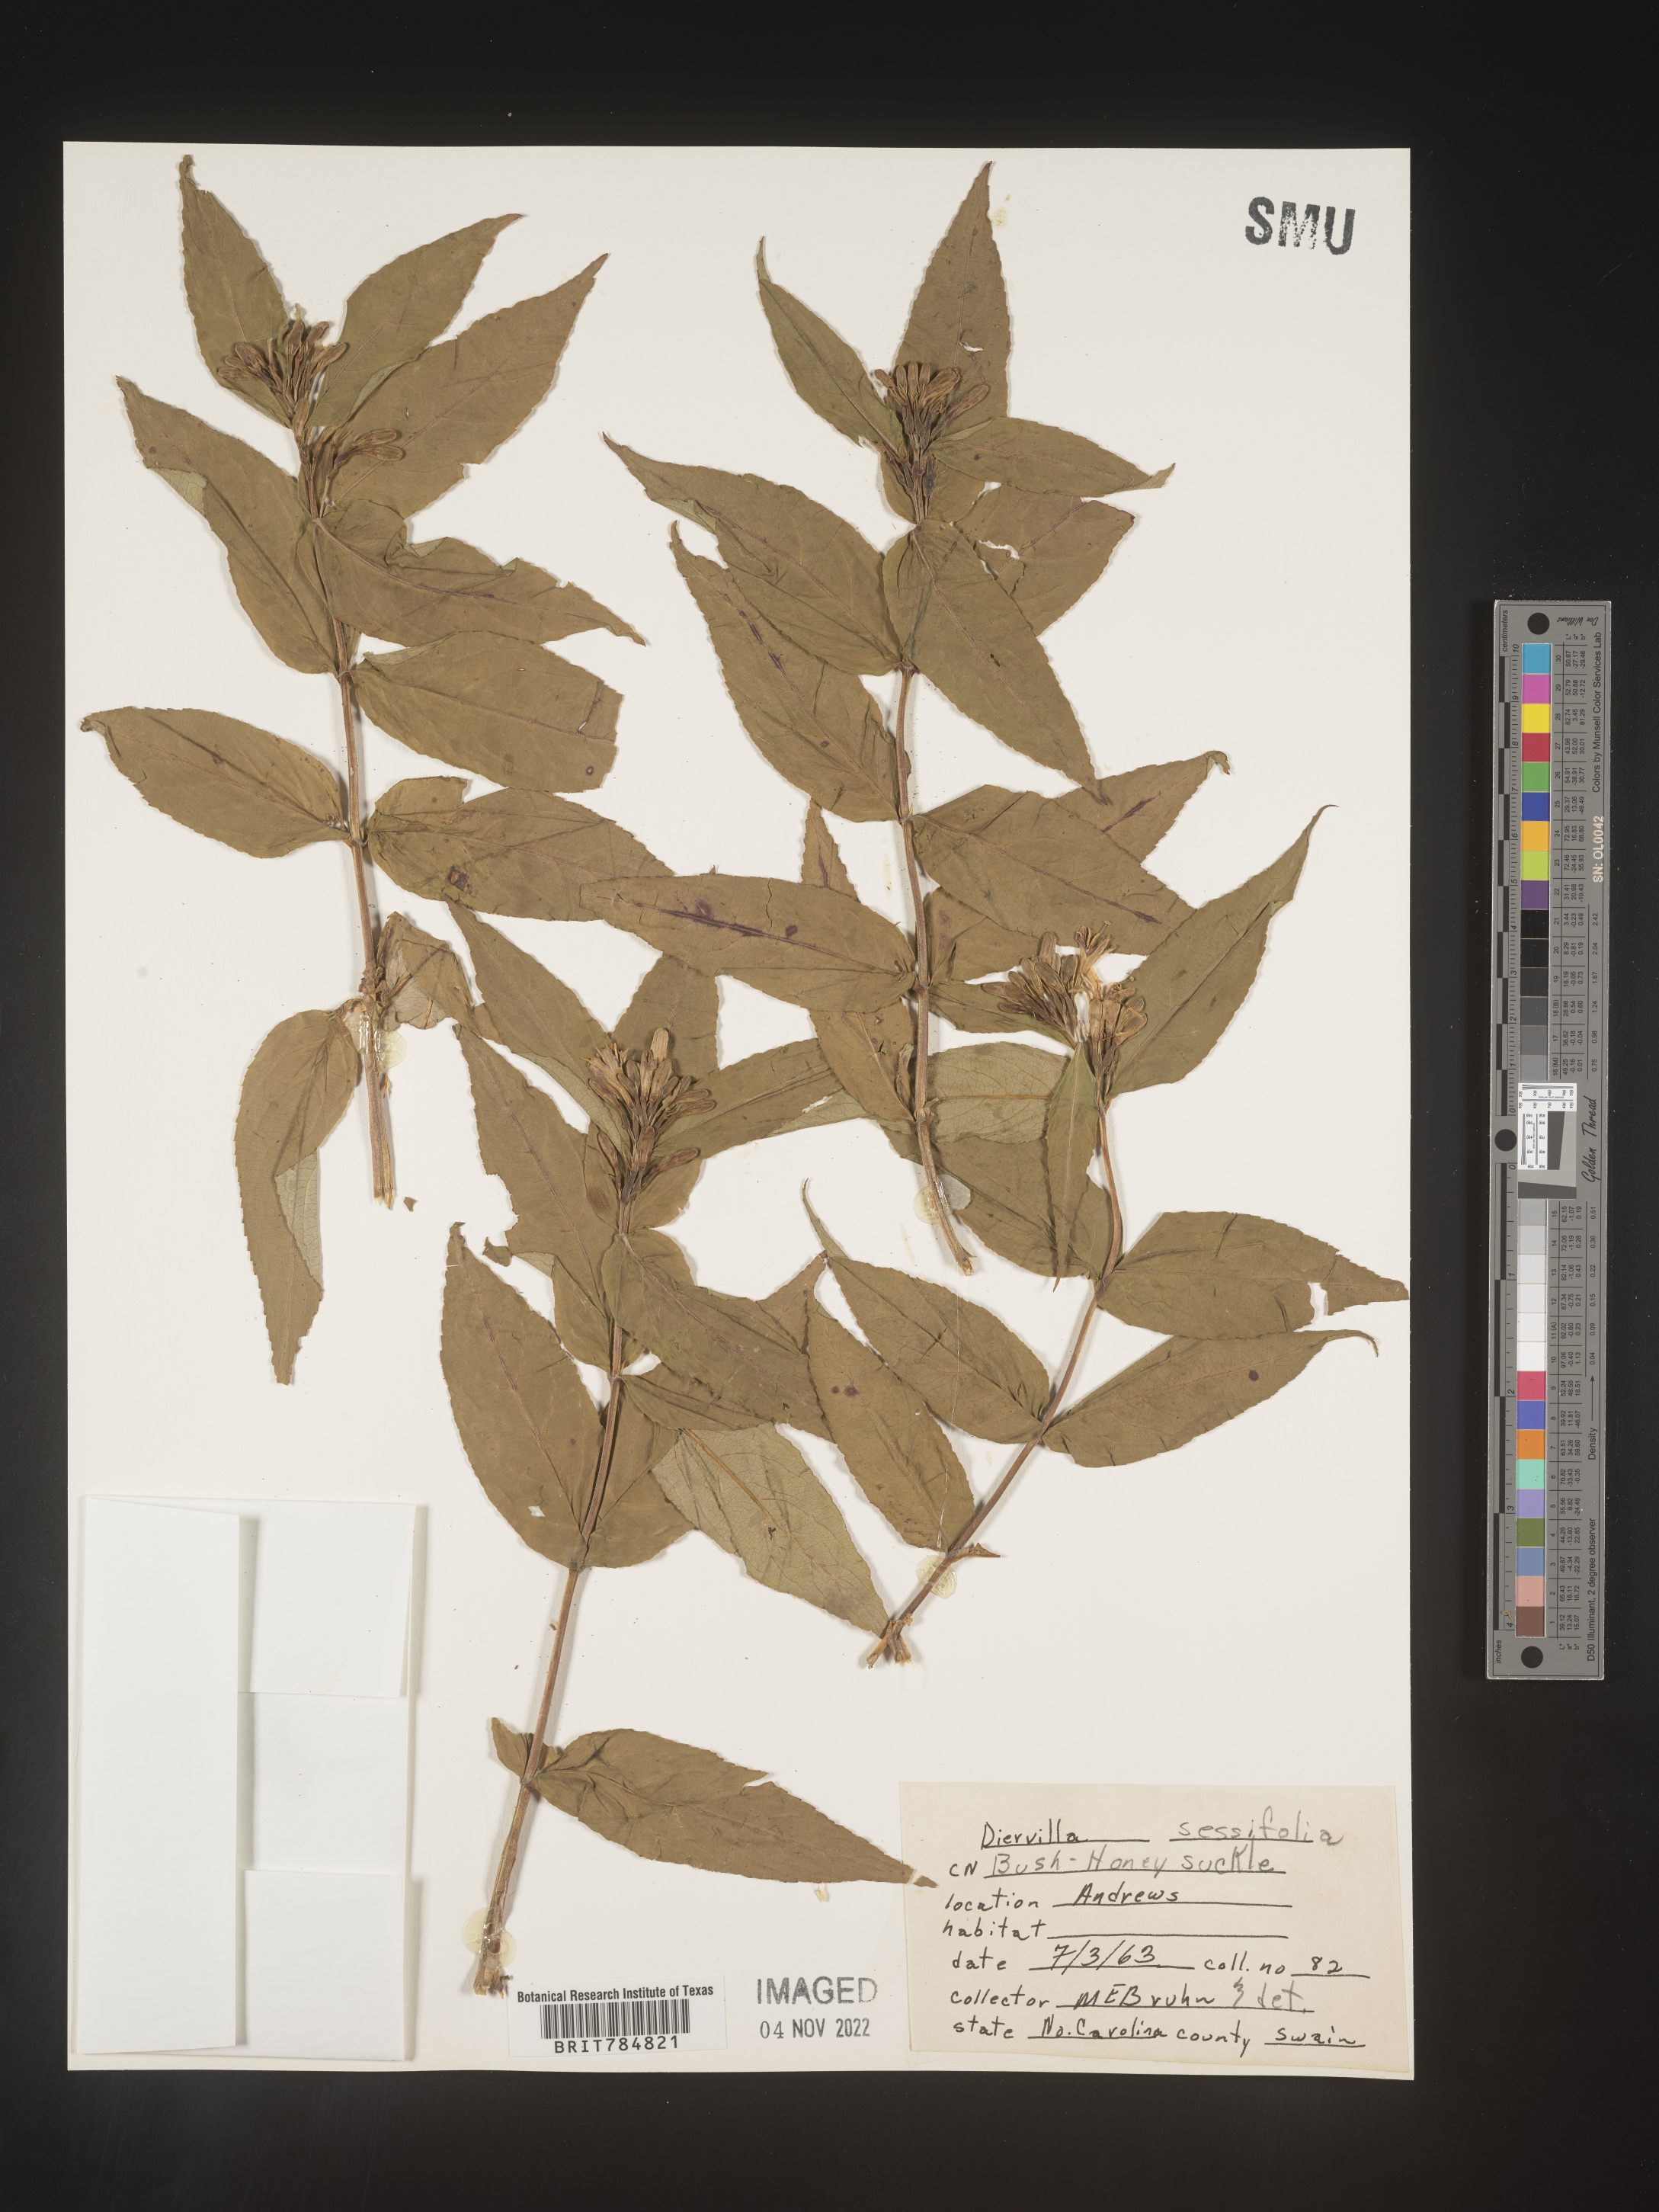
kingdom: Plantae
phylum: Tracheophyta
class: Magnoliopsida
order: Dipsacales
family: Caprifoliaceae
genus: Diervilla
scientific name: Diervilla
